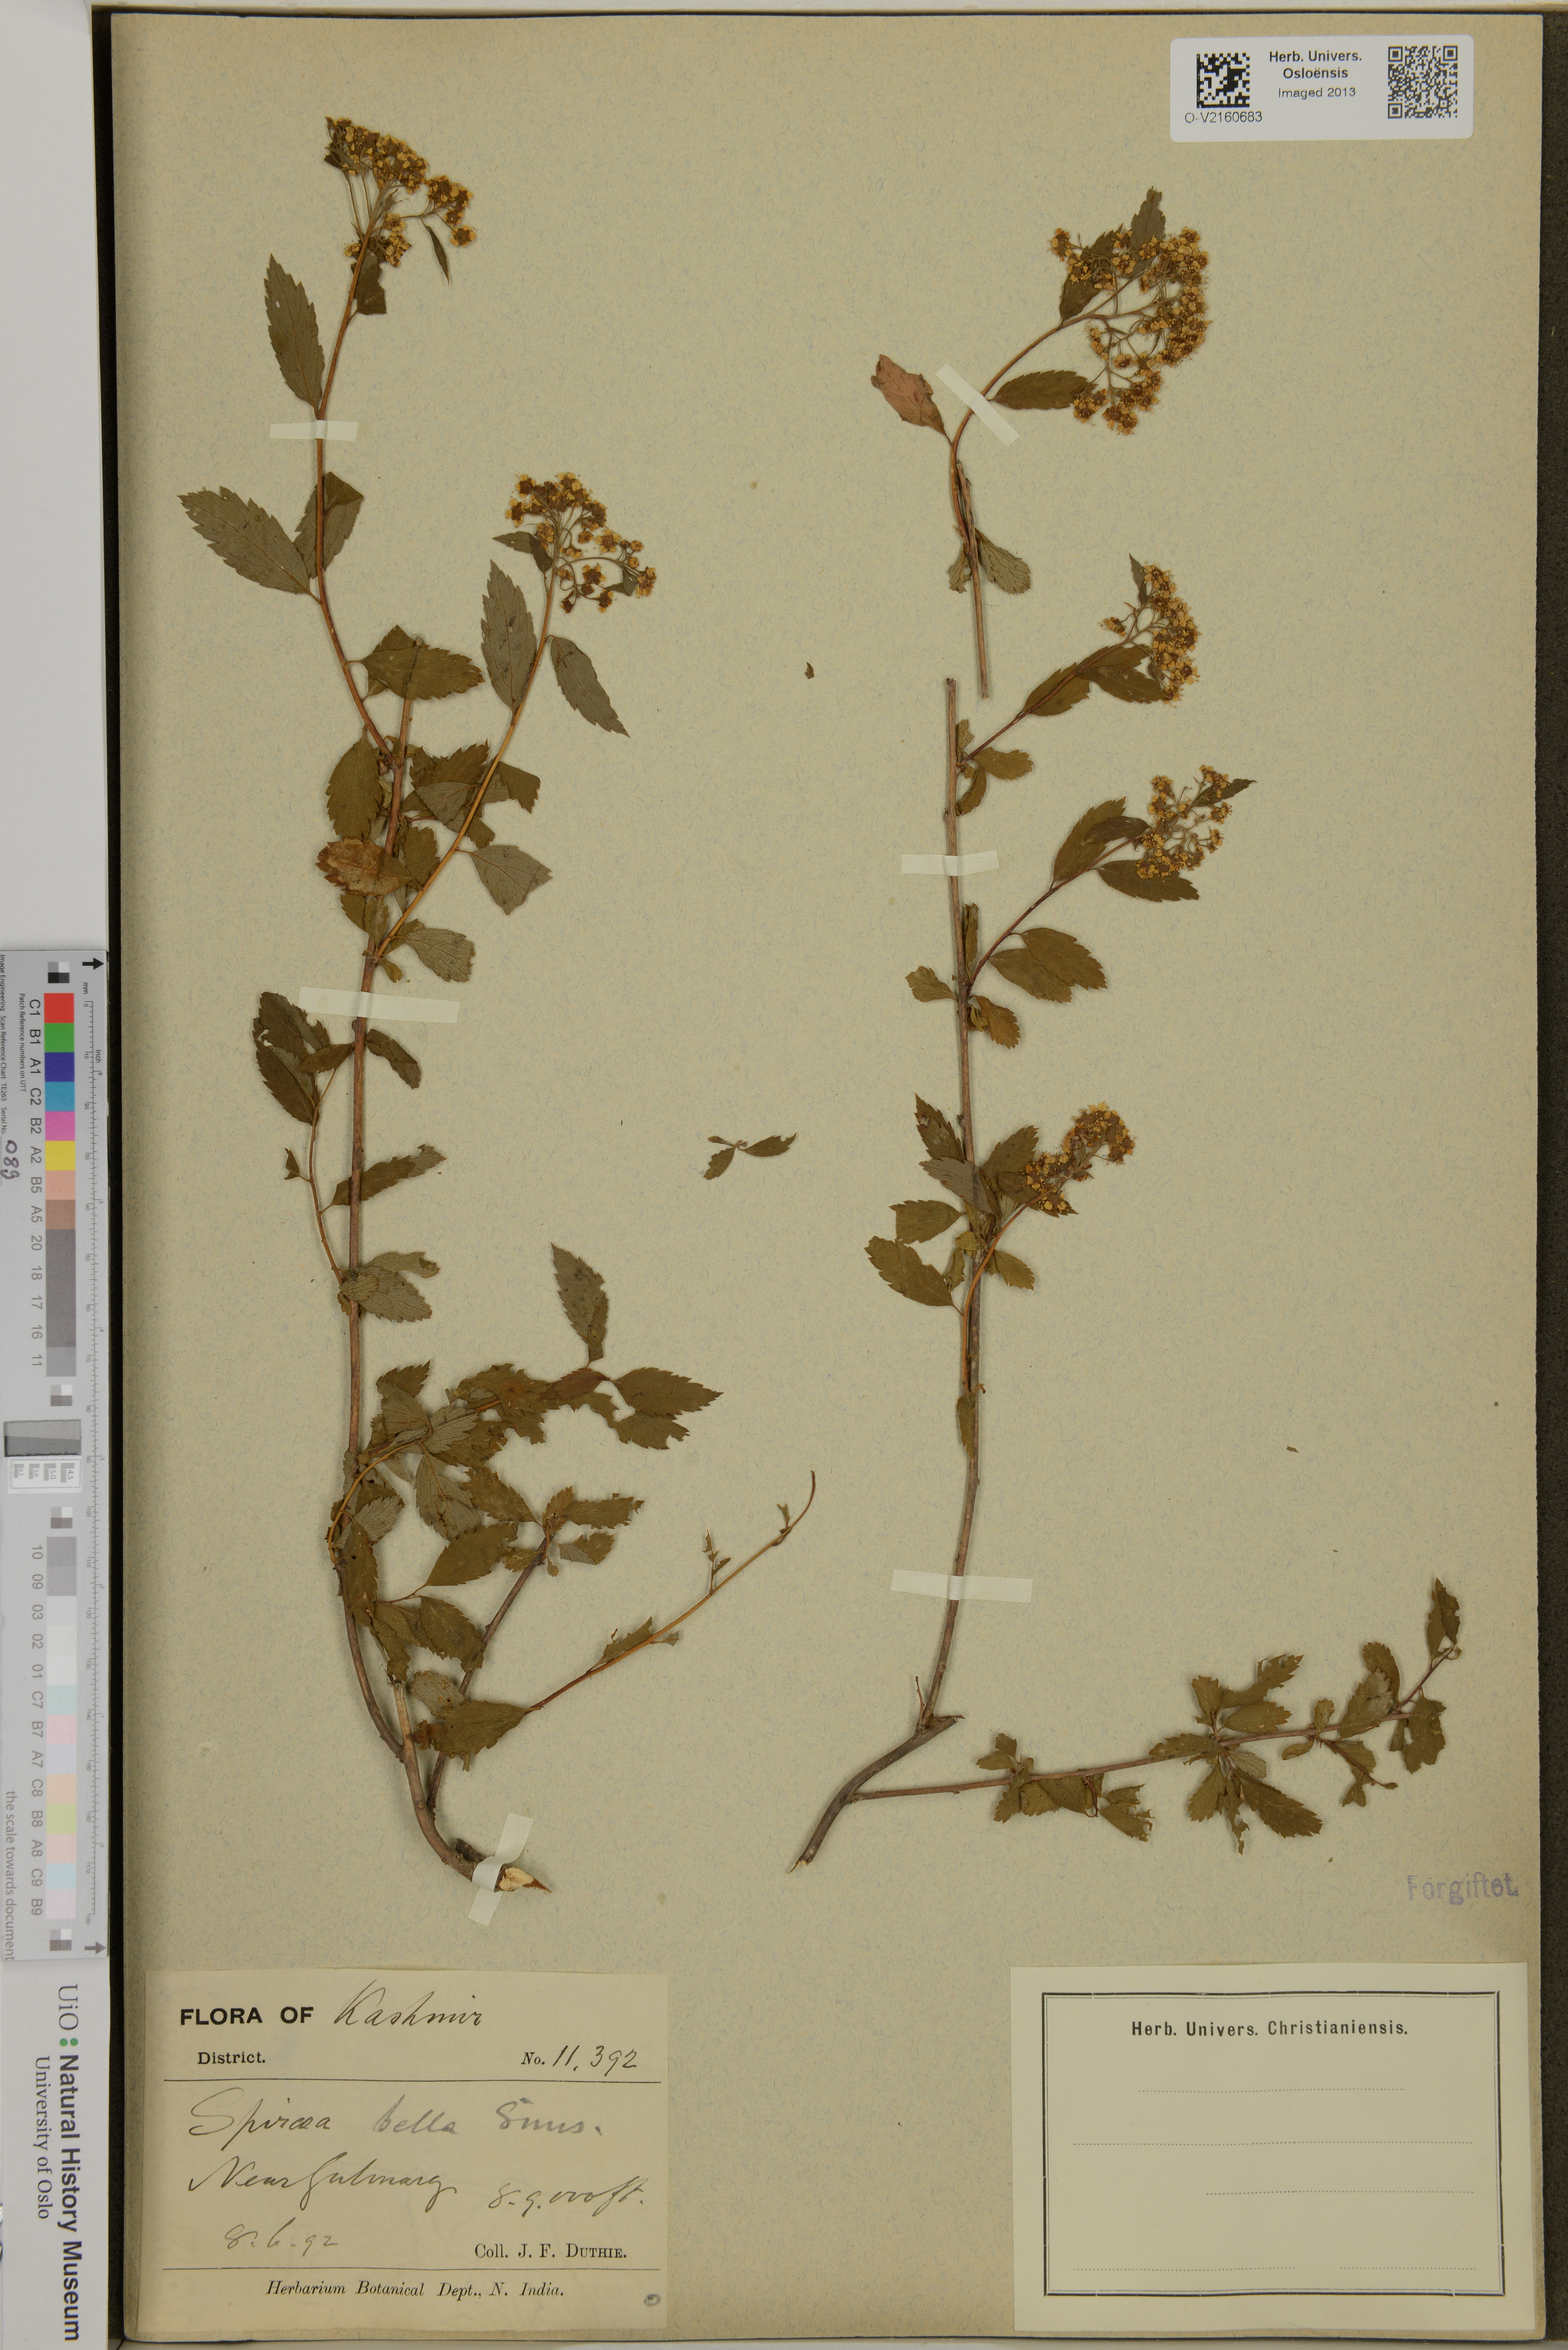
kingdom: Plantae
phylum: Tracheophyta
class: Magnoliopsida
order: Rosales
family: Rosaceae
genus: Spiraea
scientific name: Spiraea bella
